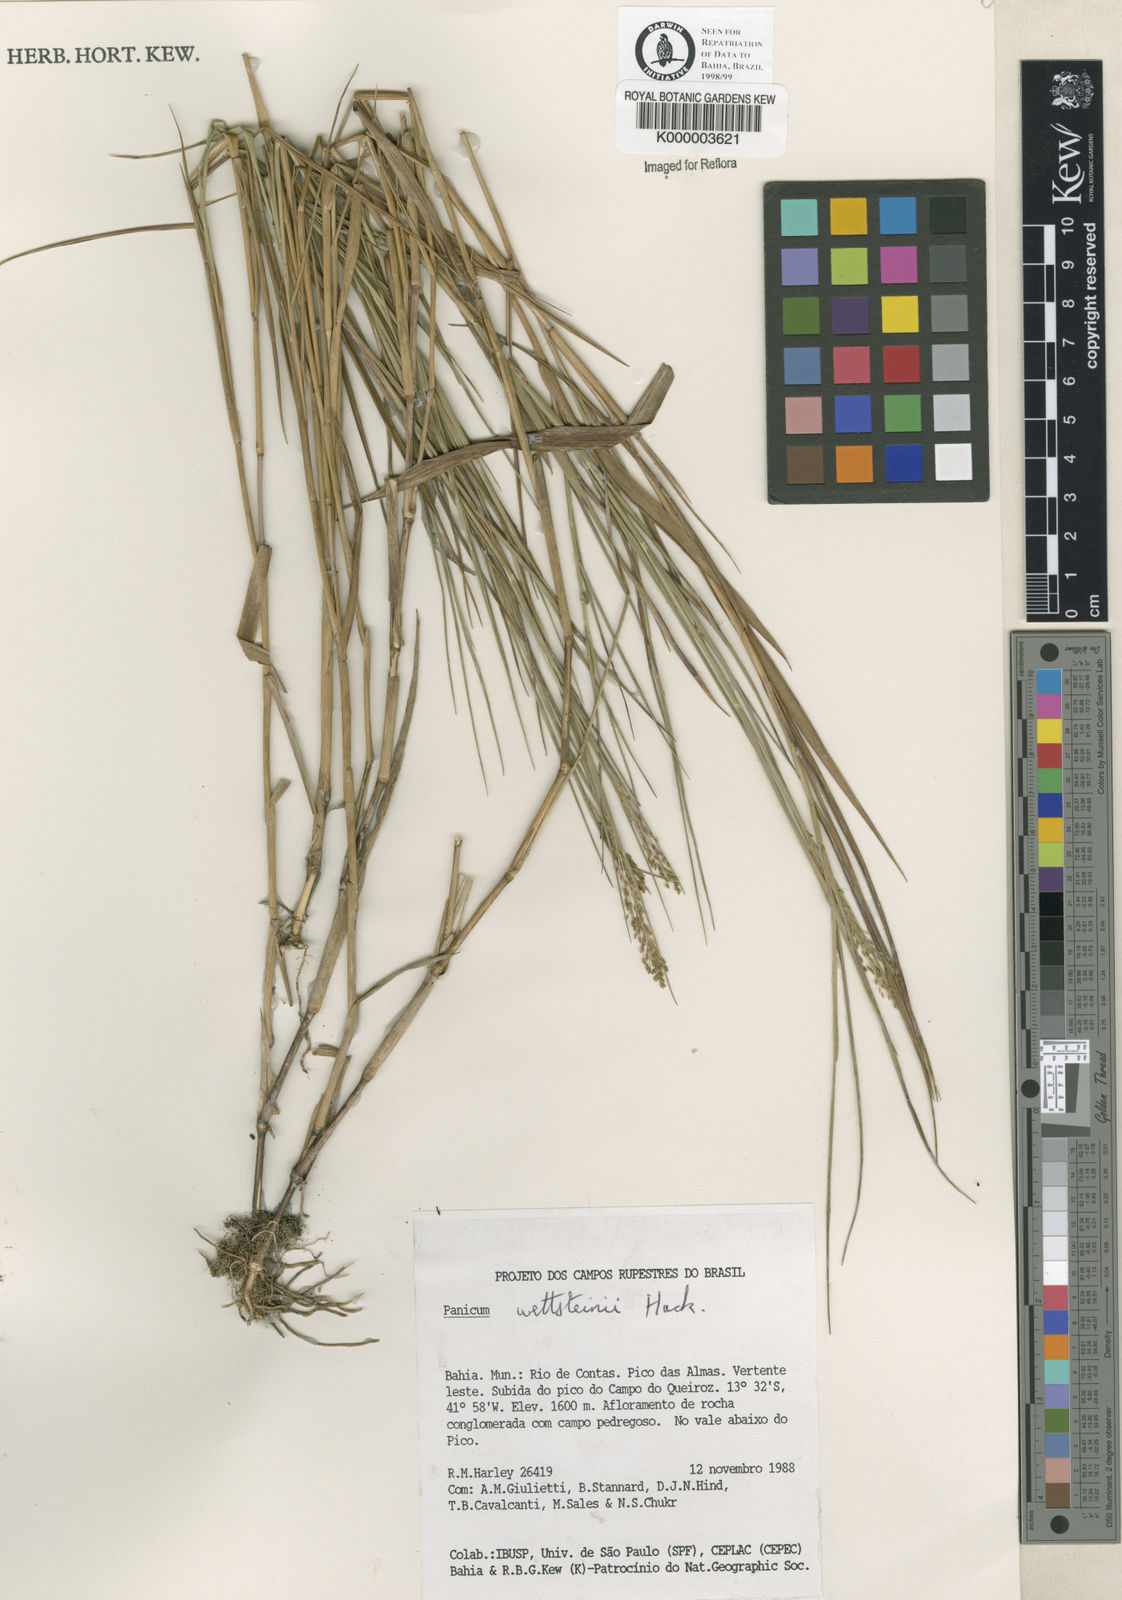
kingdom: Plantae
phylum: Tracheophyta
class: Liliopsida
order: Poales
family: Poaceae
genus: Trichanthecium
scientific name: Trichanthecium wettsteinii
